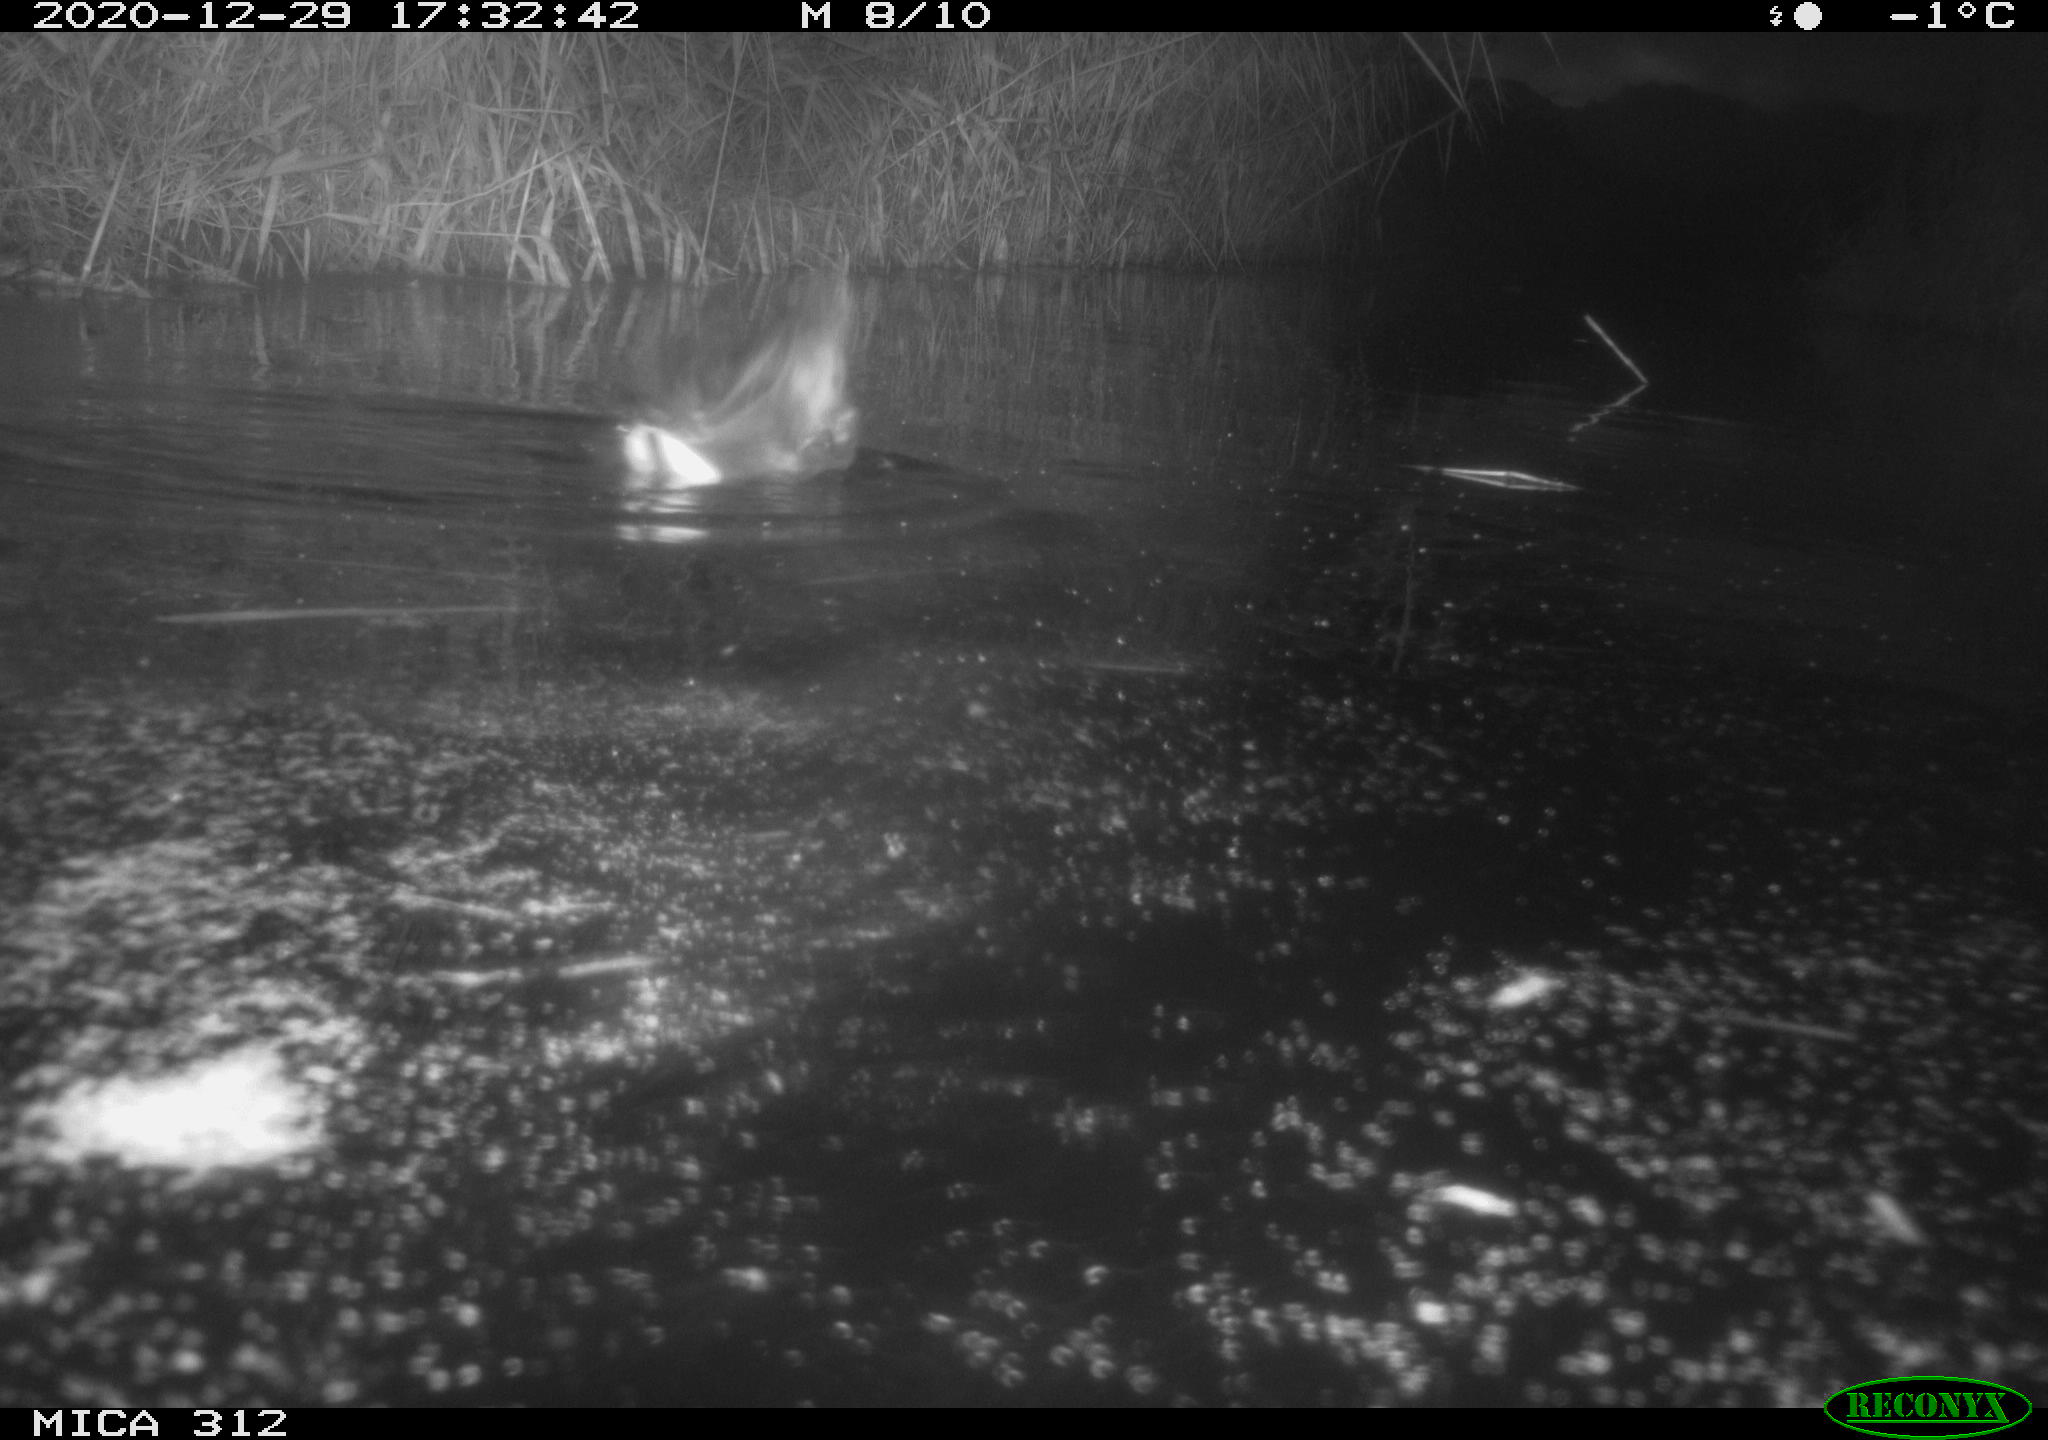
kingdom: Animalia
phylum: Chordata
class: Aves
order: Gruiformes
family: Rallidae
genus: Gallinula
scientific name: Gallinula chloropus
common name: Common moorhen
